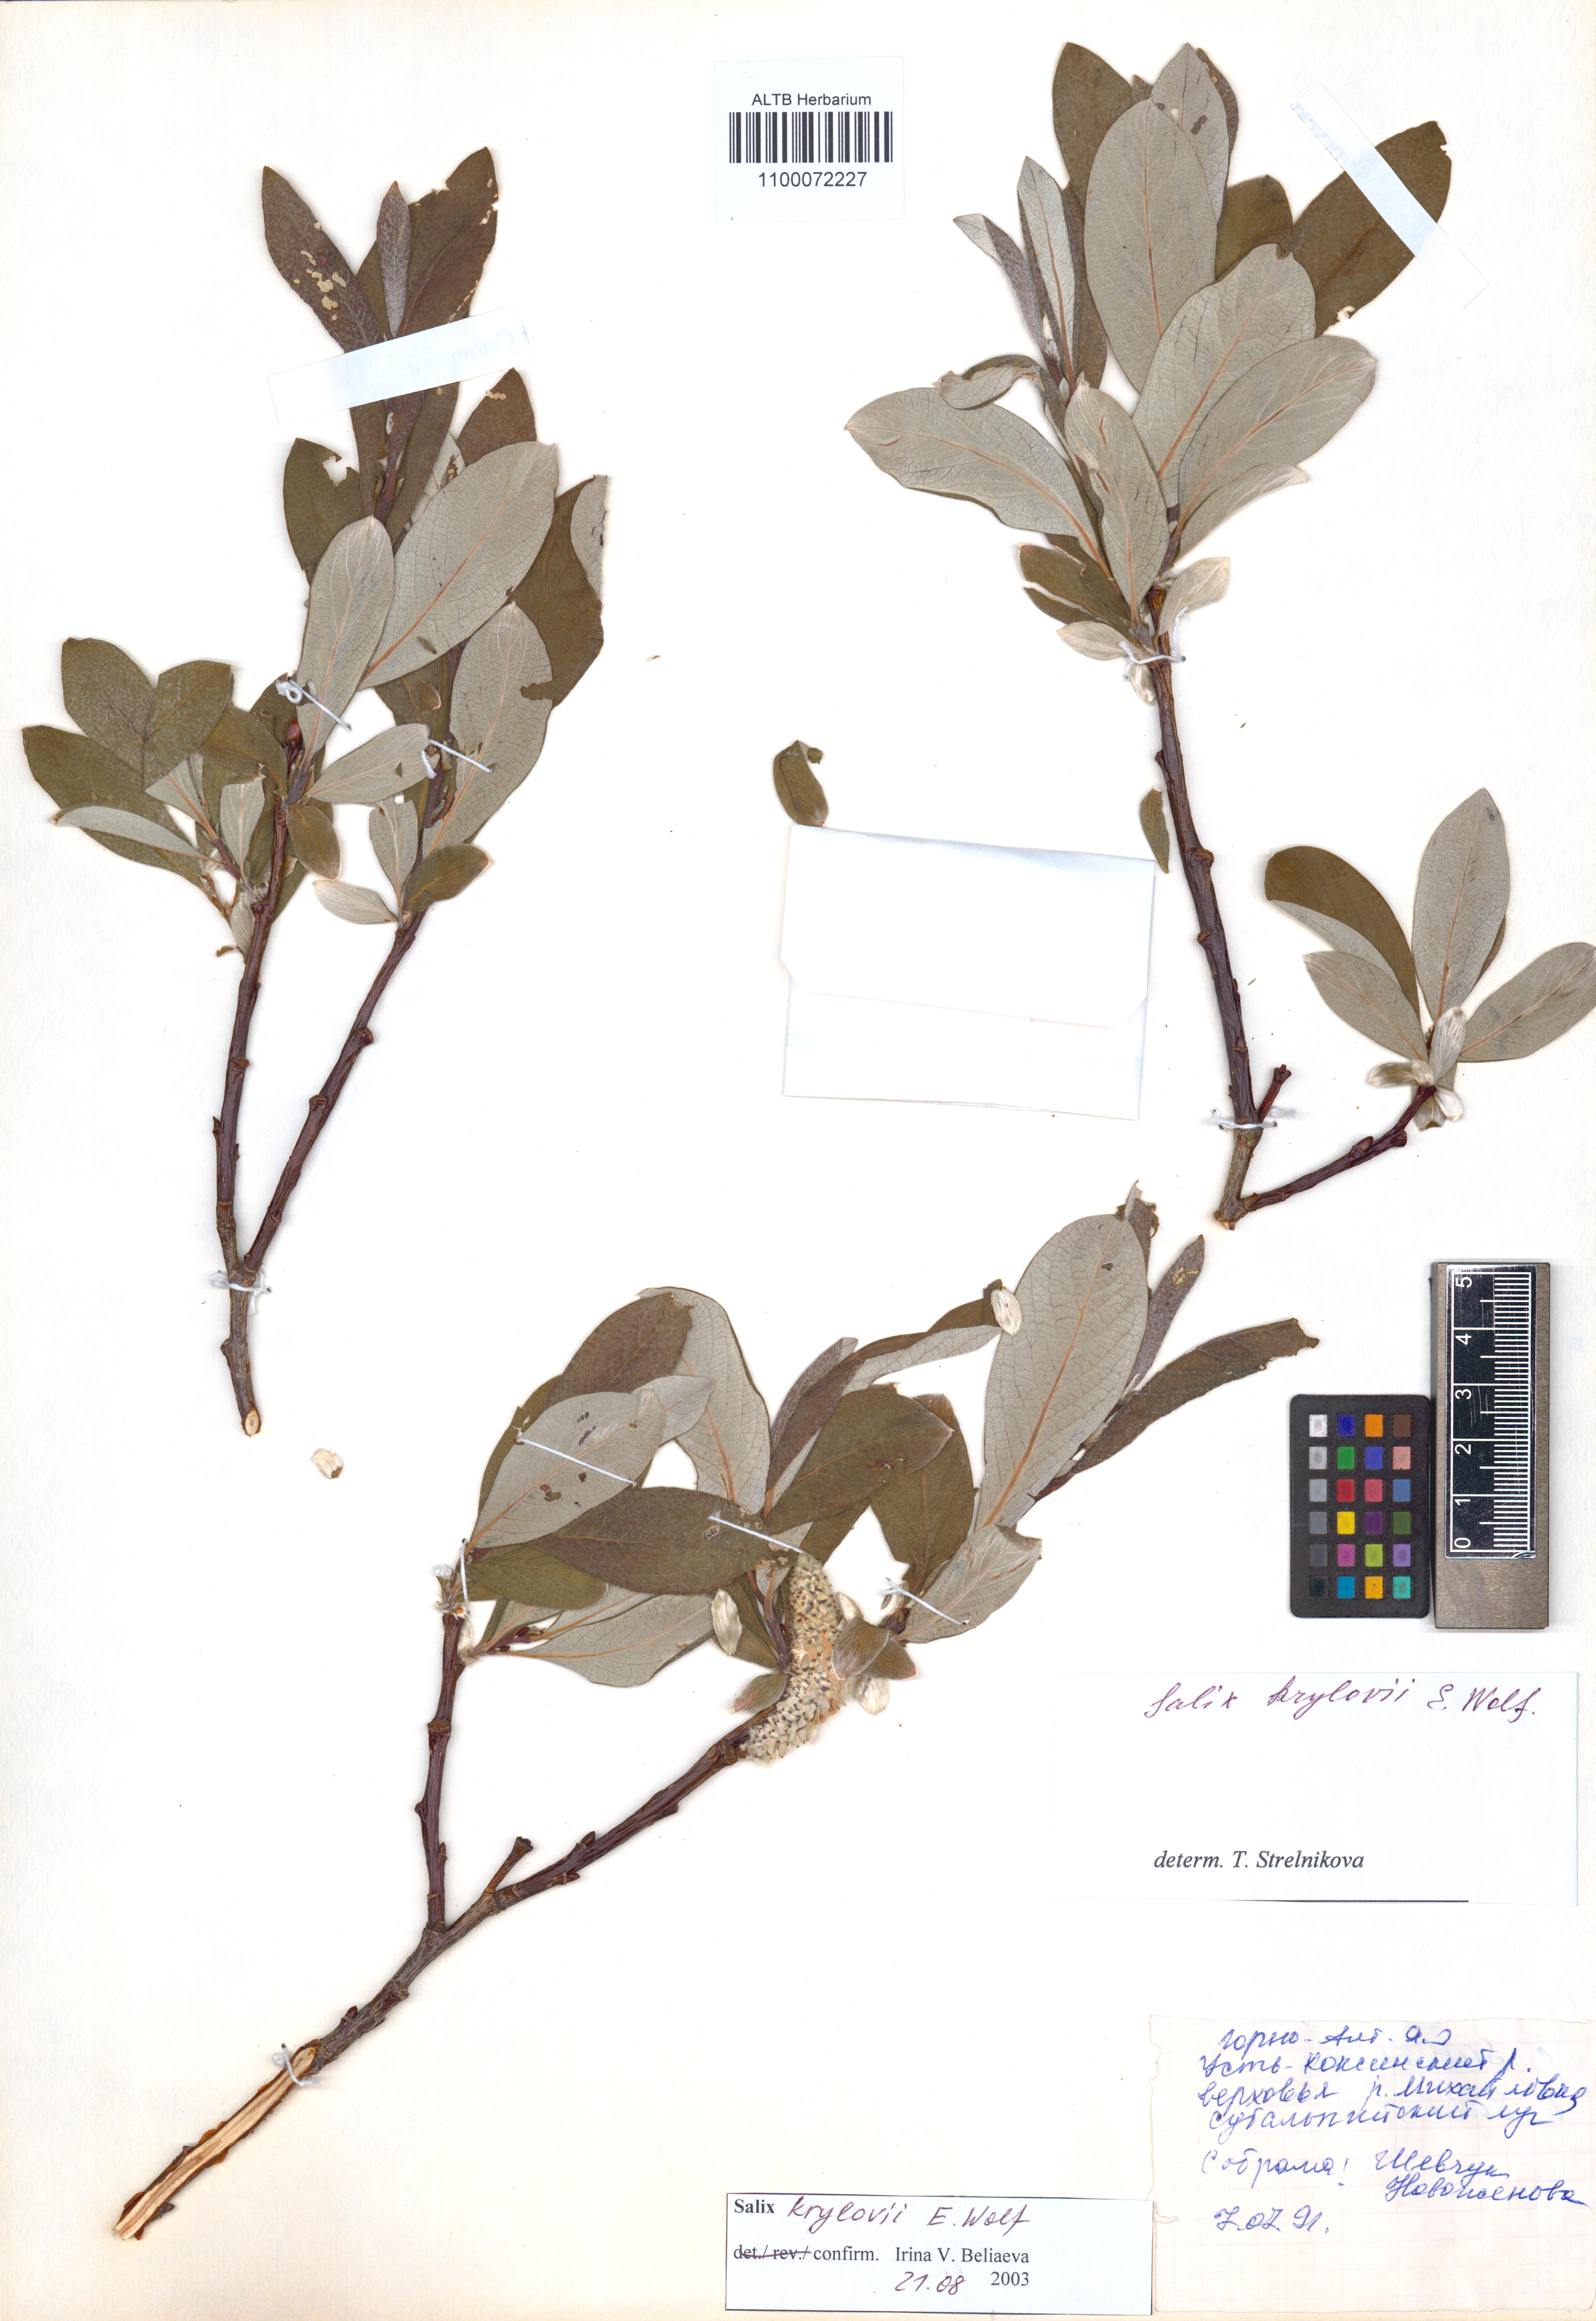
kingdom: Plantae
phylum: Tracheophyta
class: Magnoliopsida
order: Malpighiales
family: Salicaceae
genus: Salix
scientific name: Salix krylovii
